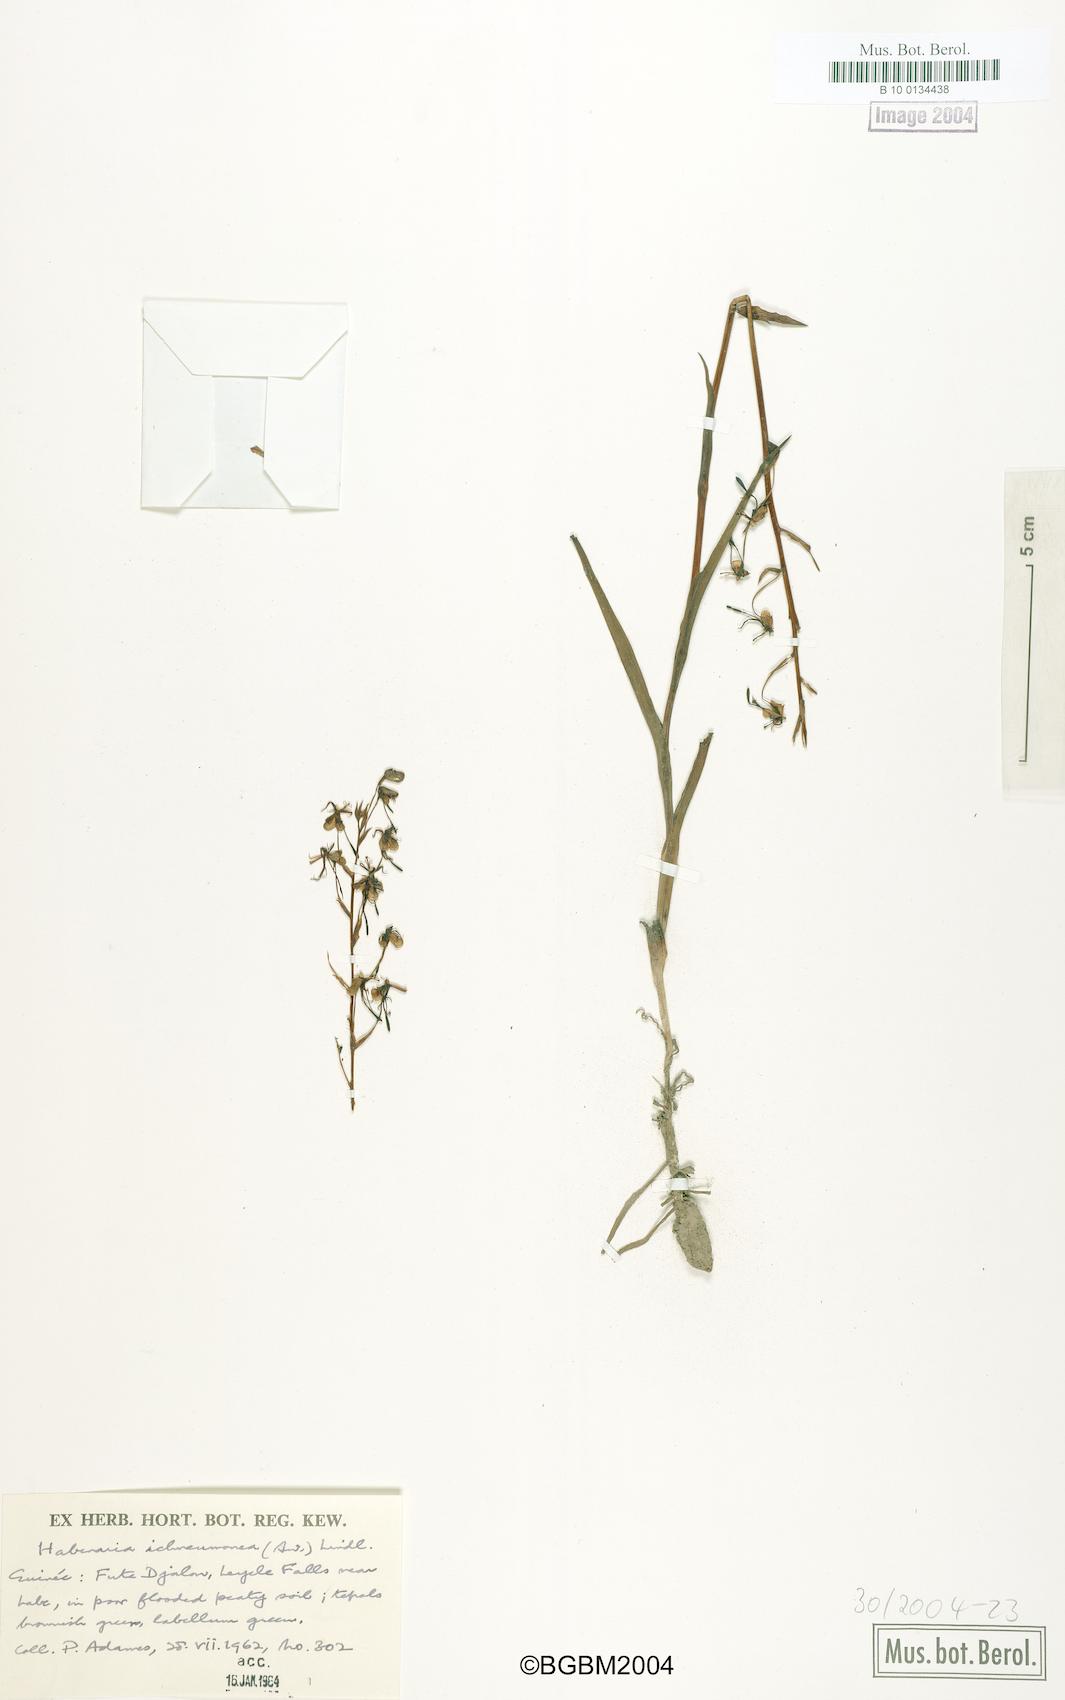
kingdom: Plantae
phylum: Tracheophyta
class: Liliopsida
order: Asparagales
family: Orchidaceae
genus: Habenaria
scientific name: Habenaria ichneumonea
